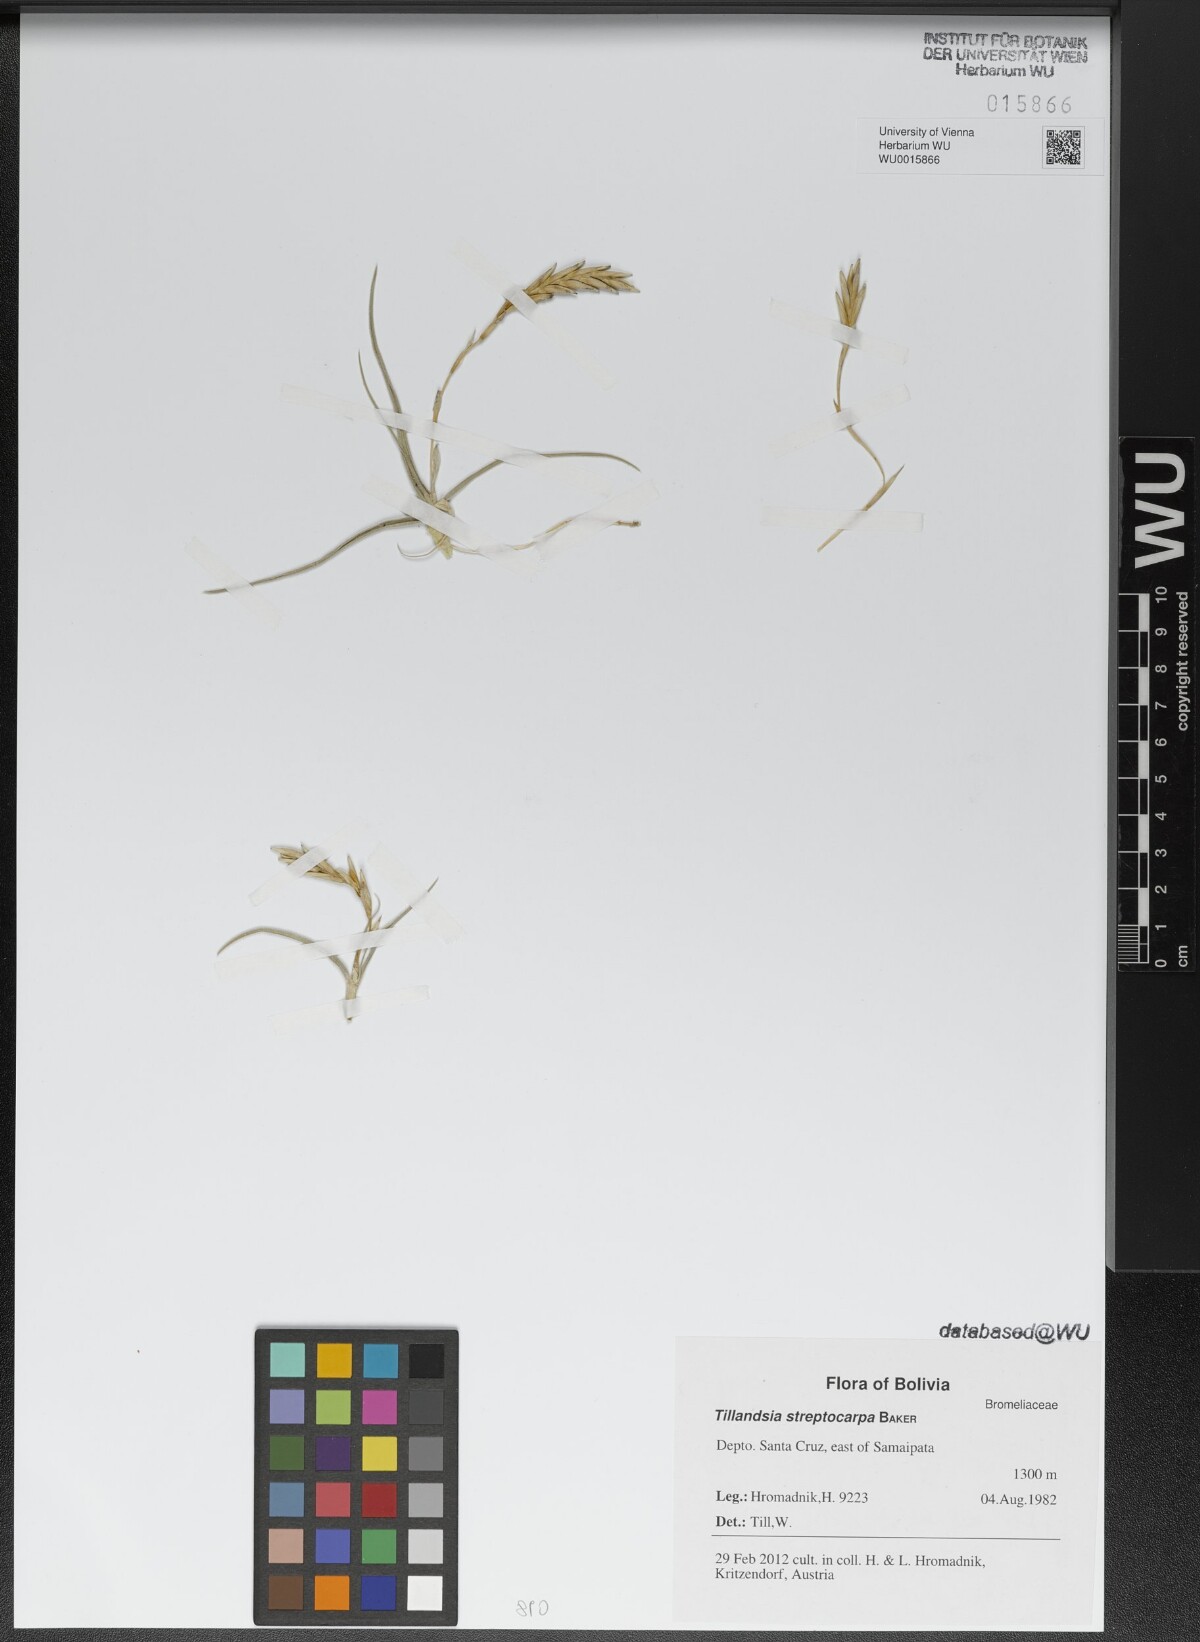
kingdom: Plantae
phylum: Tracheophyta
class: Liliopsida
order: Poales
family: Bromeliaceae
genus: Tillandsia
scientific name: Tillandsia streptocarpa
